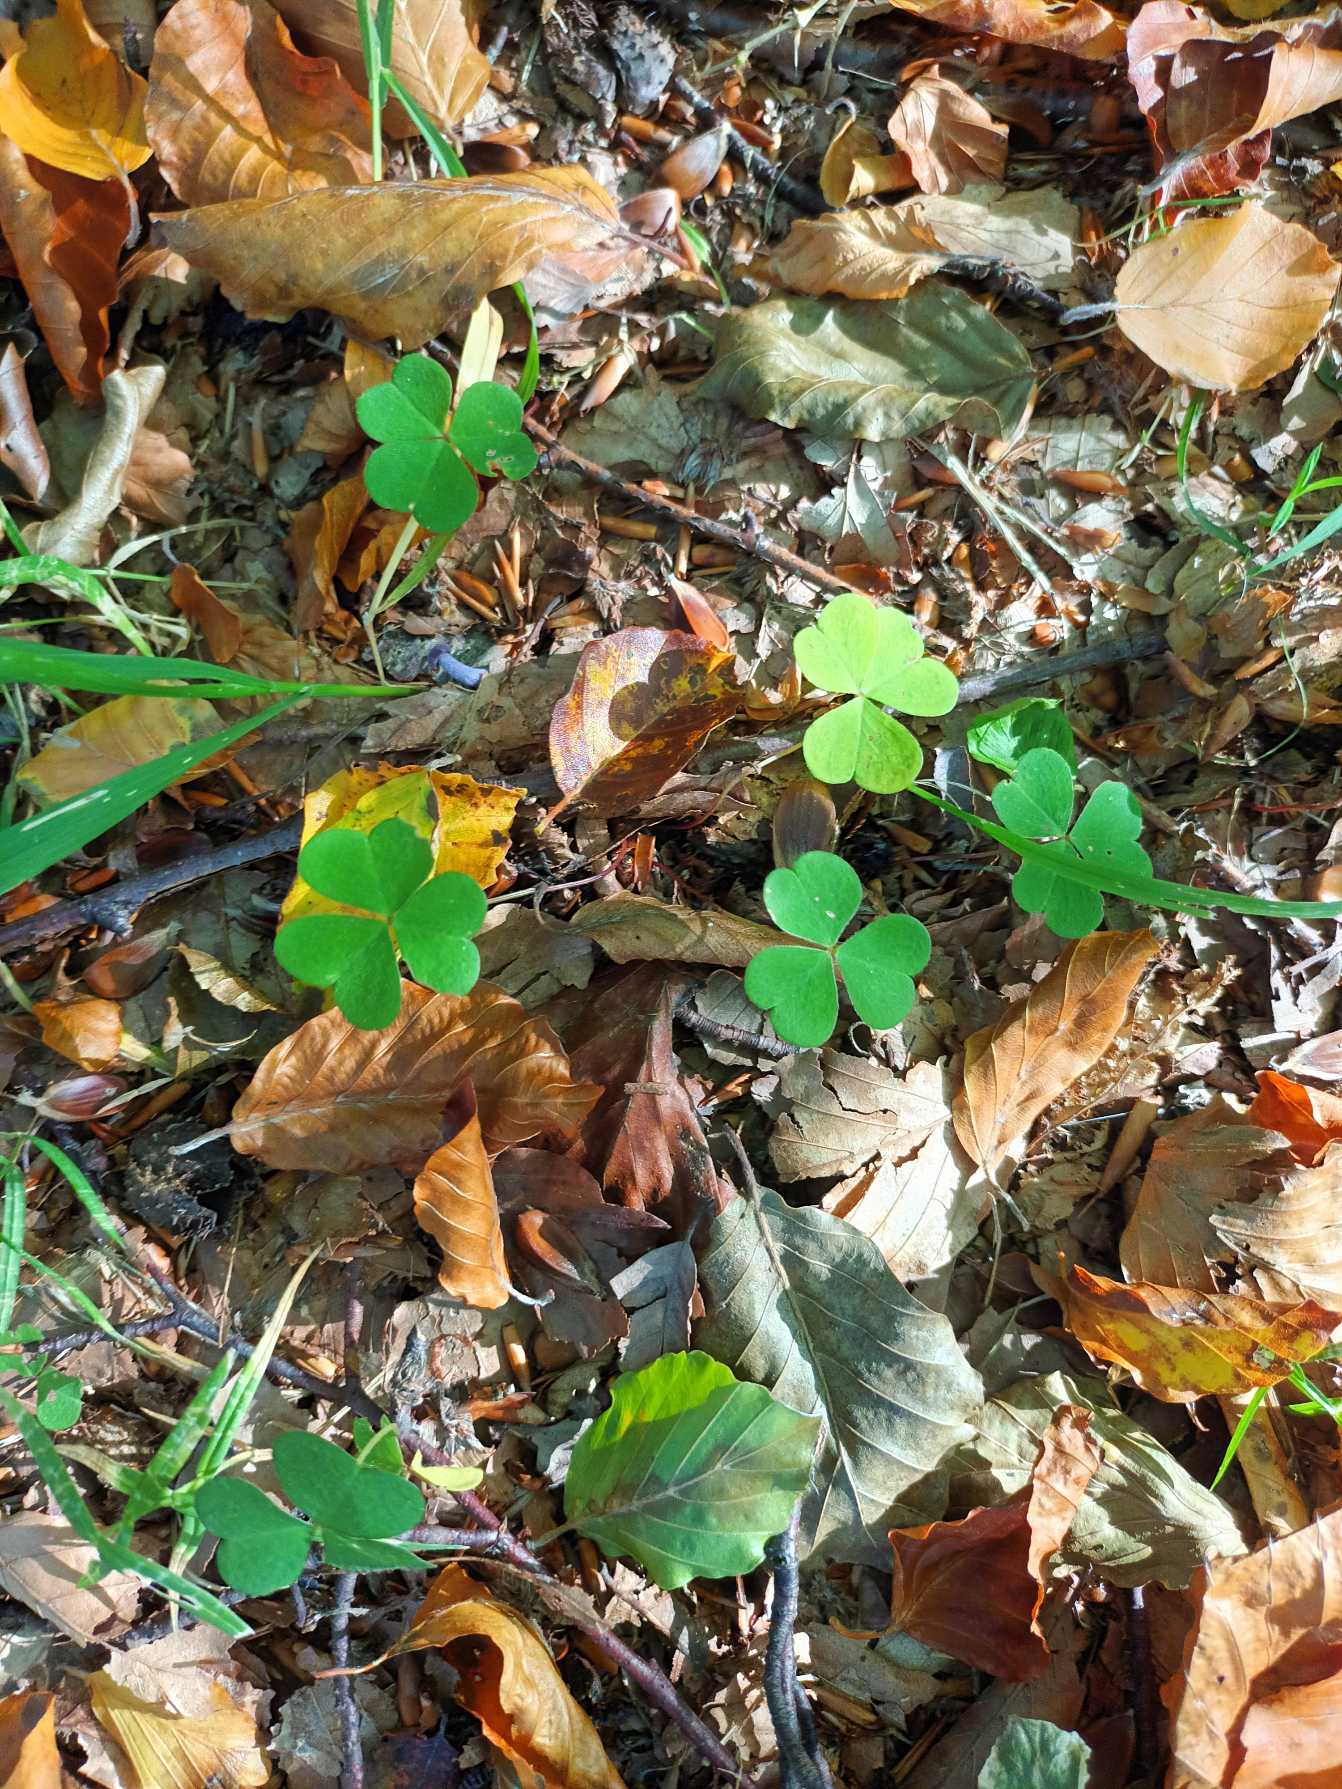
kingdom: Plantae
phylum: Tracheophyta
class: Magnoliopsida
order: Oxalidales
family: Oxalidaceae
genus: Oxalis
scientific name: Oxalis acetosella
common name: Skovsyre
